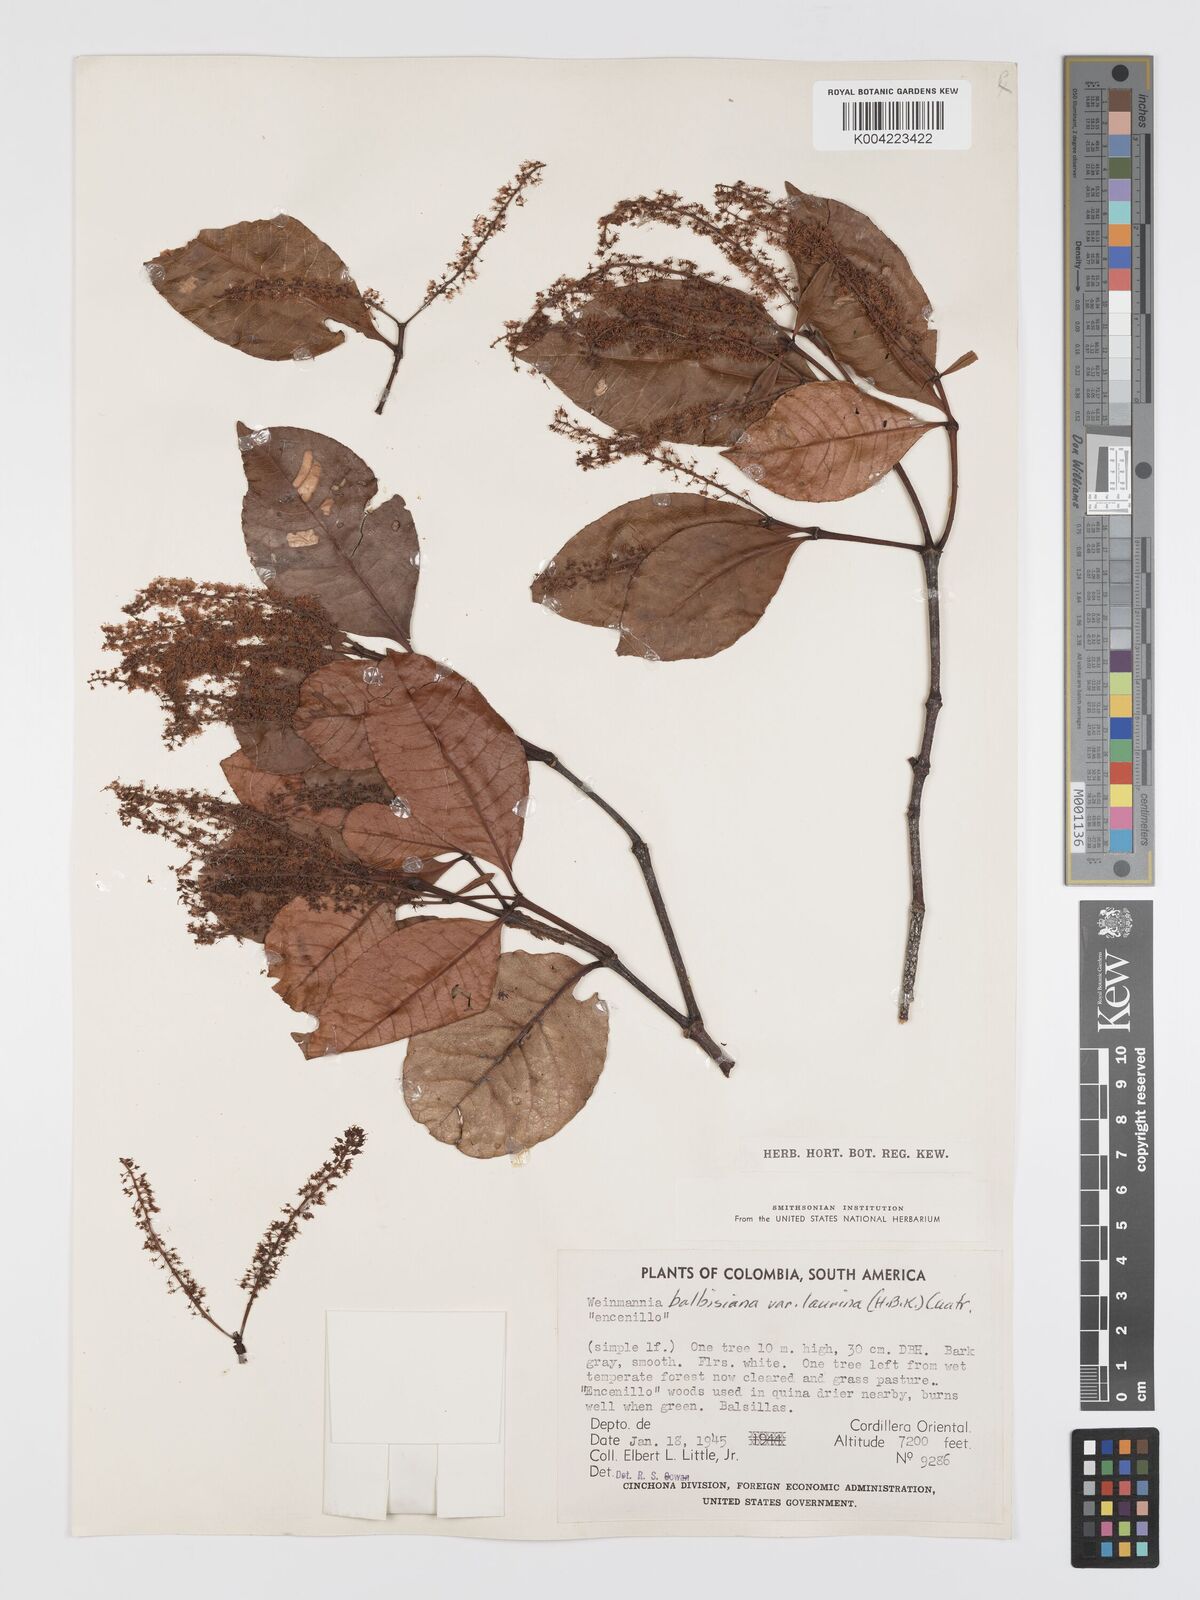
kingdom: Plantae
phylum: Tracheophyta
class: Magnoliopsida
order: Oxalidales
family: Cunoniaceae
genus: Weinmannia
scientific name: Weinmannia balbisana
